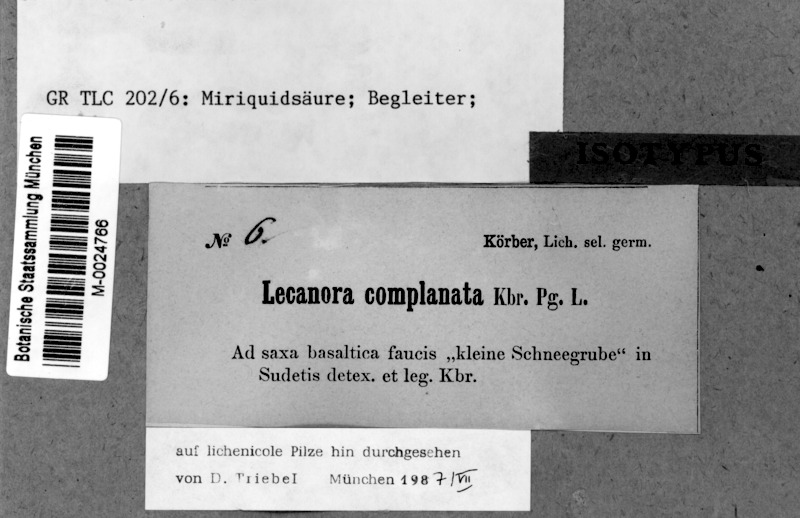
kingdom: Fungi
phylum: Ascomycota
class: Lecanoromycetes
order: Lecanorales
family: Lecanoraceae
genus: Miriquidica
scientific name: Miriquidica complanata
